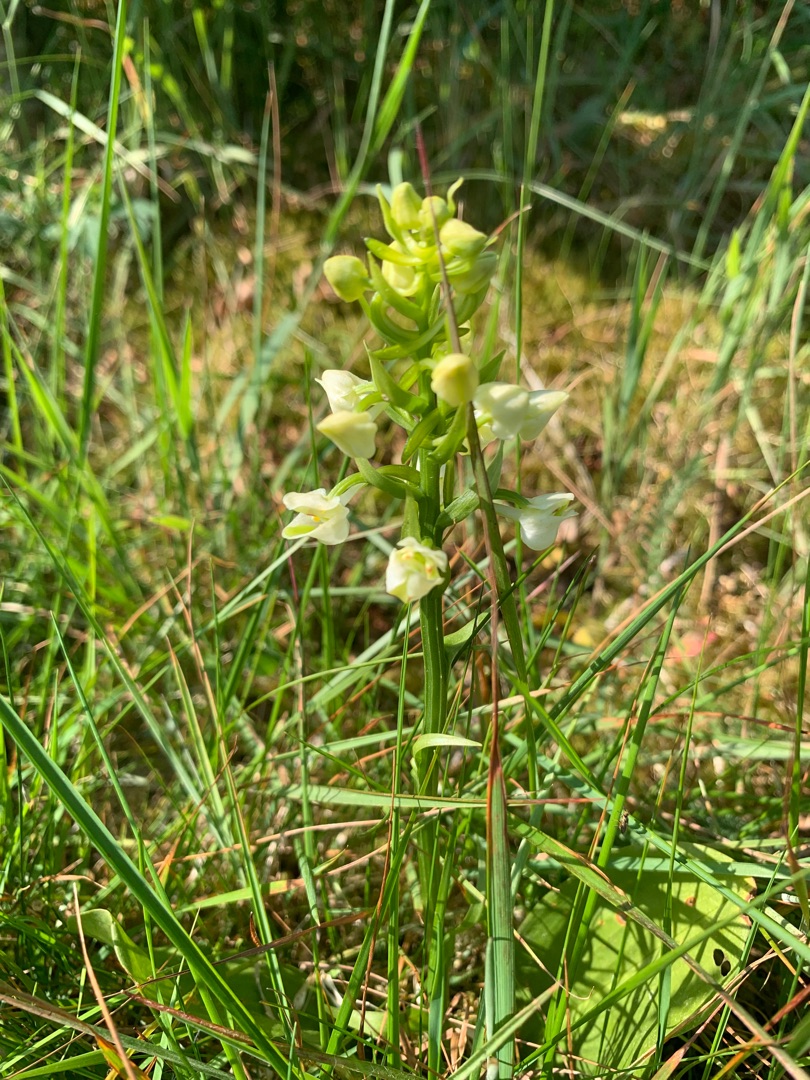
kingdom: Plantae
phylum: Tracheophyta
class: Liliopsida
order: Asparagales
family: Orchidaceae
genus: Platanthera
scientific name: Platanthera chlorantha
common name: Skov-gøgelilje
